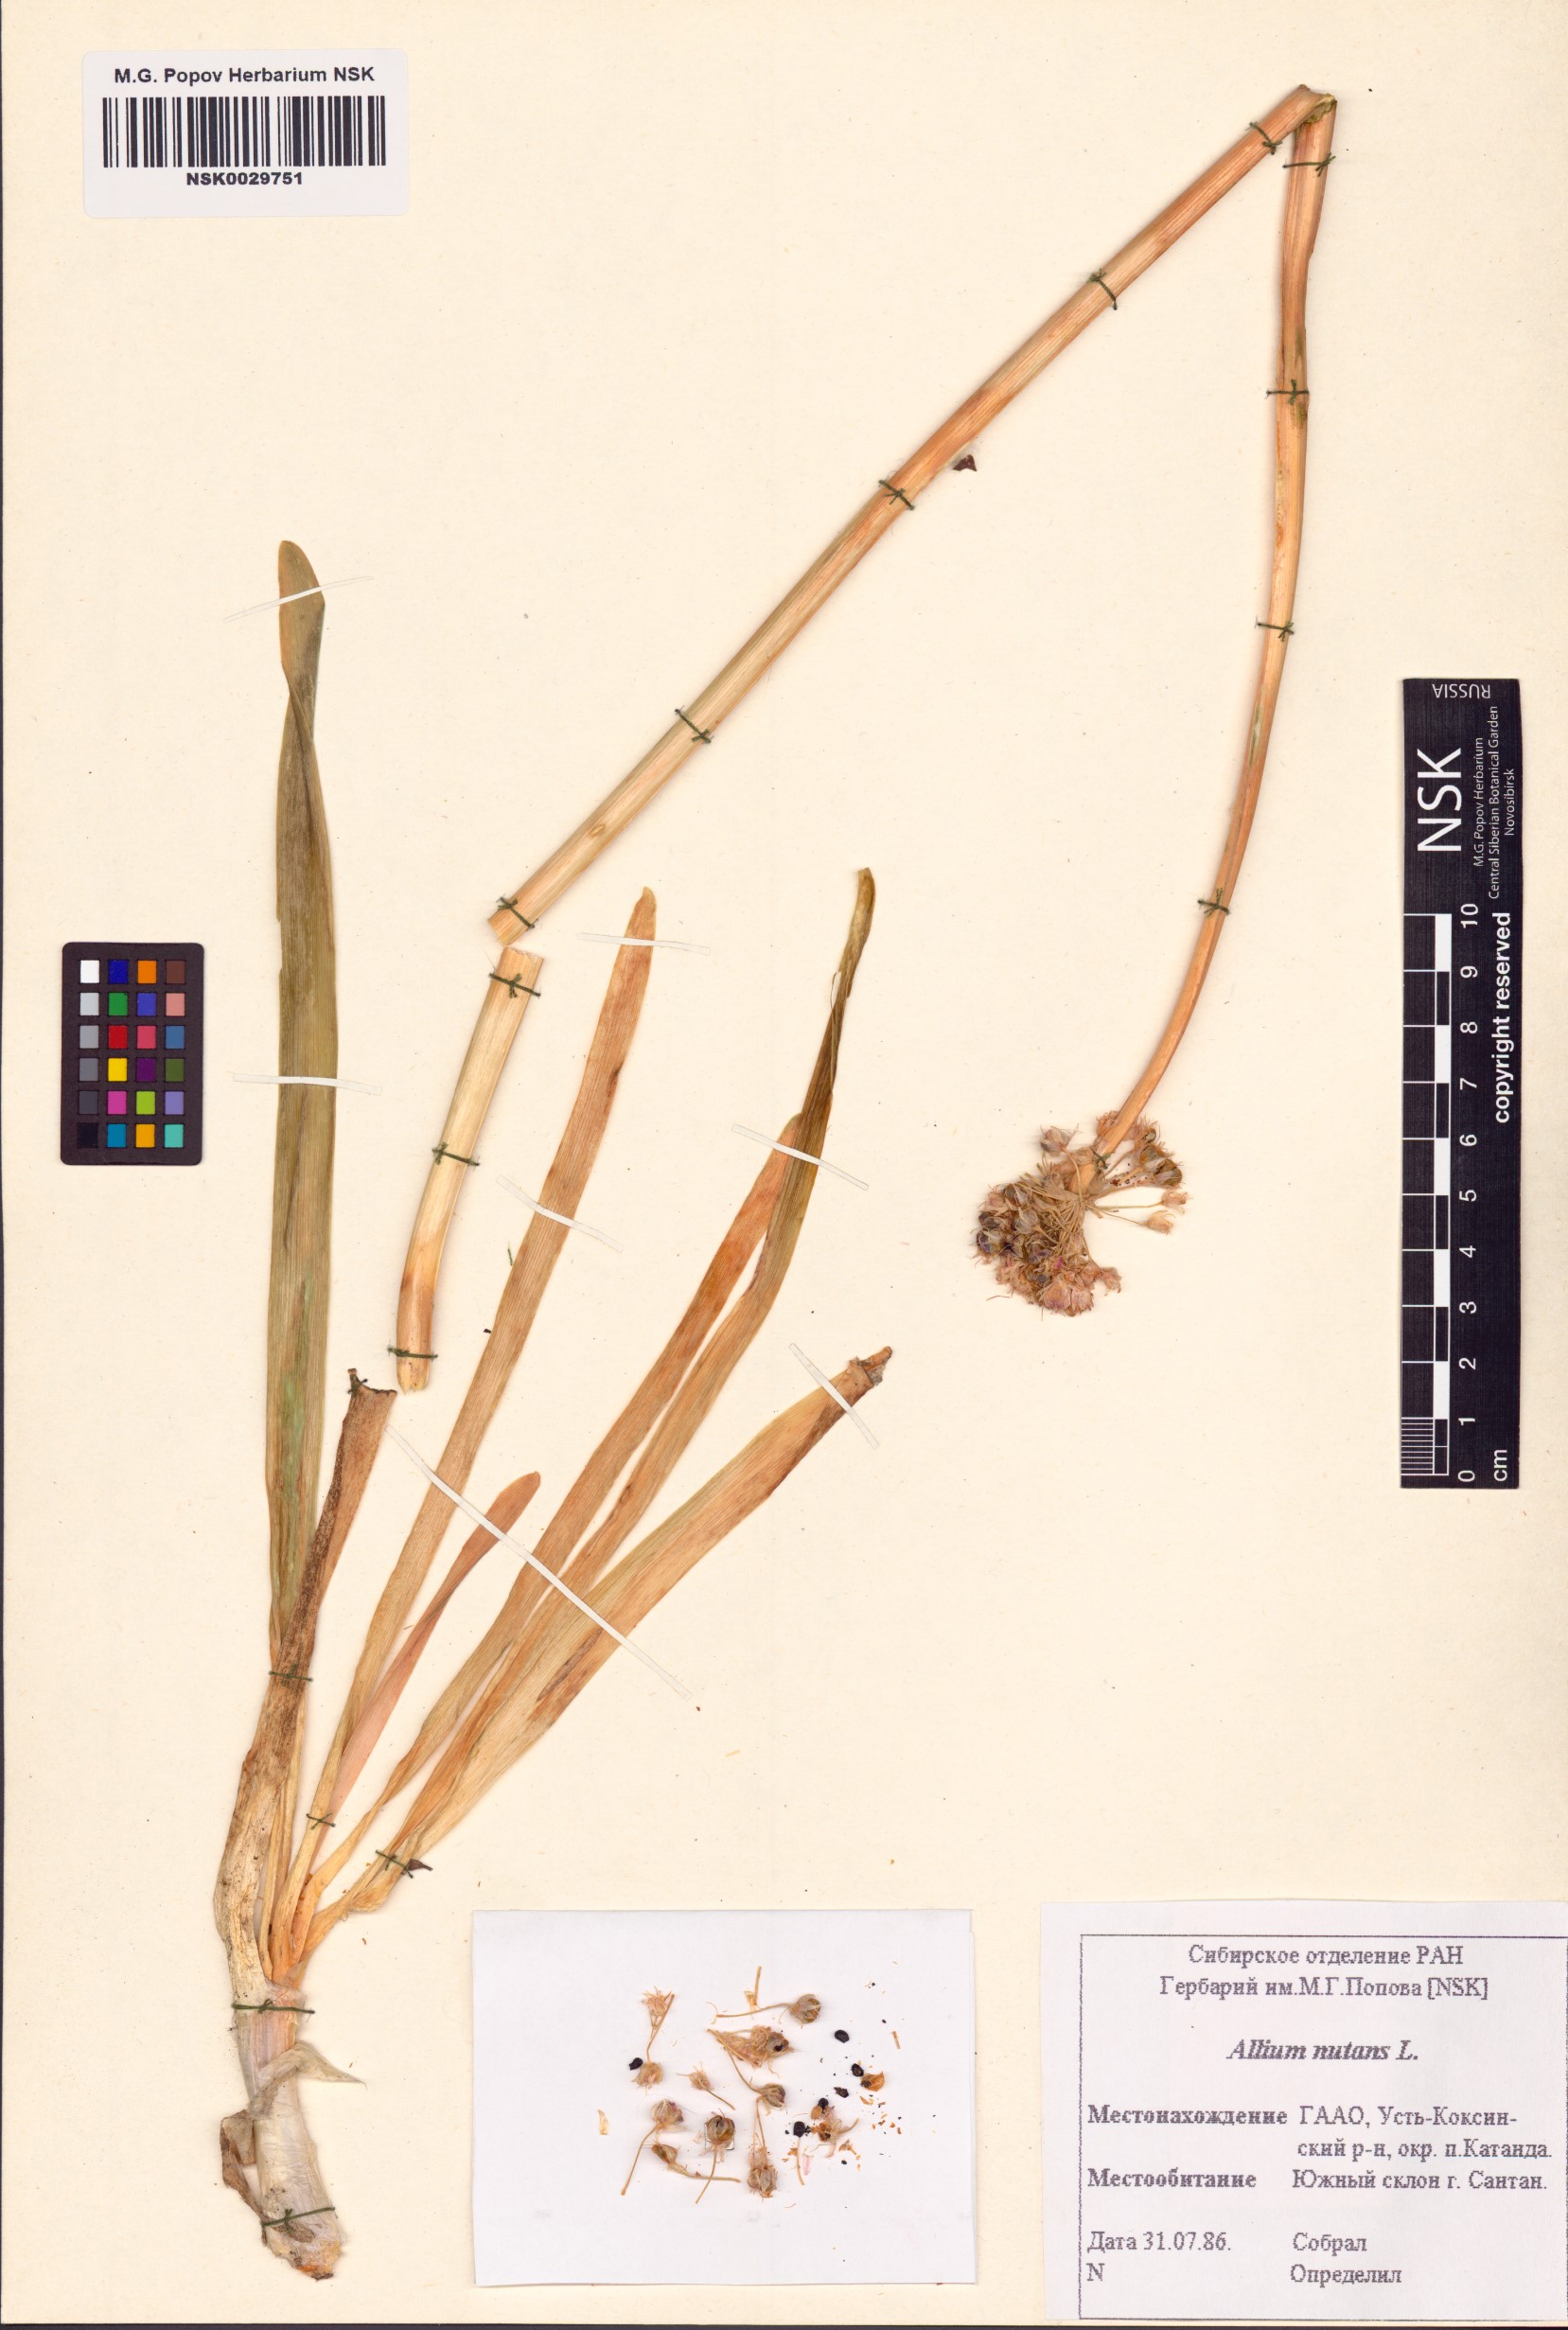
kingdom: Plantae
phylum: Tracheophyta
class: Liliopsida
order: Asparagales
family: Amaryllidaceae
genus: Allium
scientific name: Allium nutans
